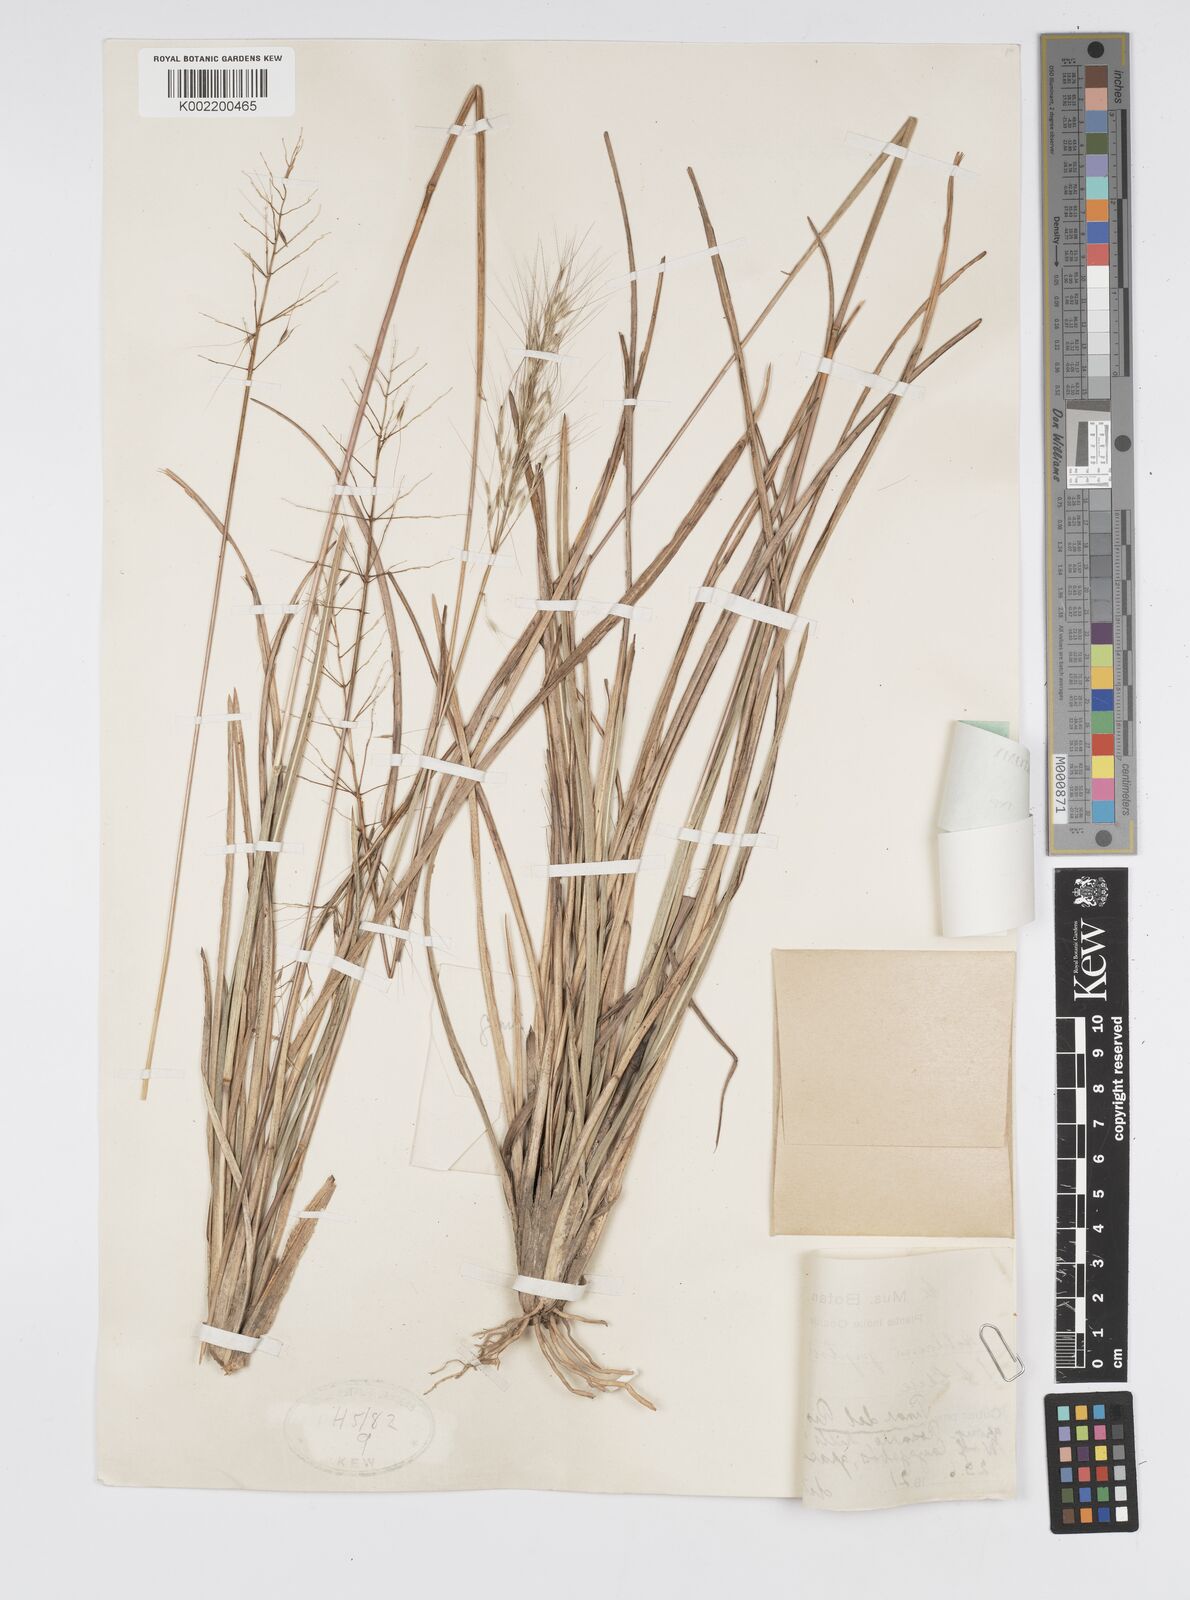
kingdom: Plantae
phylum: Tracheophyta
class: Liliopsida
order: Poales
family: Poaceae
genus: Arthropogon
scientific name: Arthropogon piptostachyus
